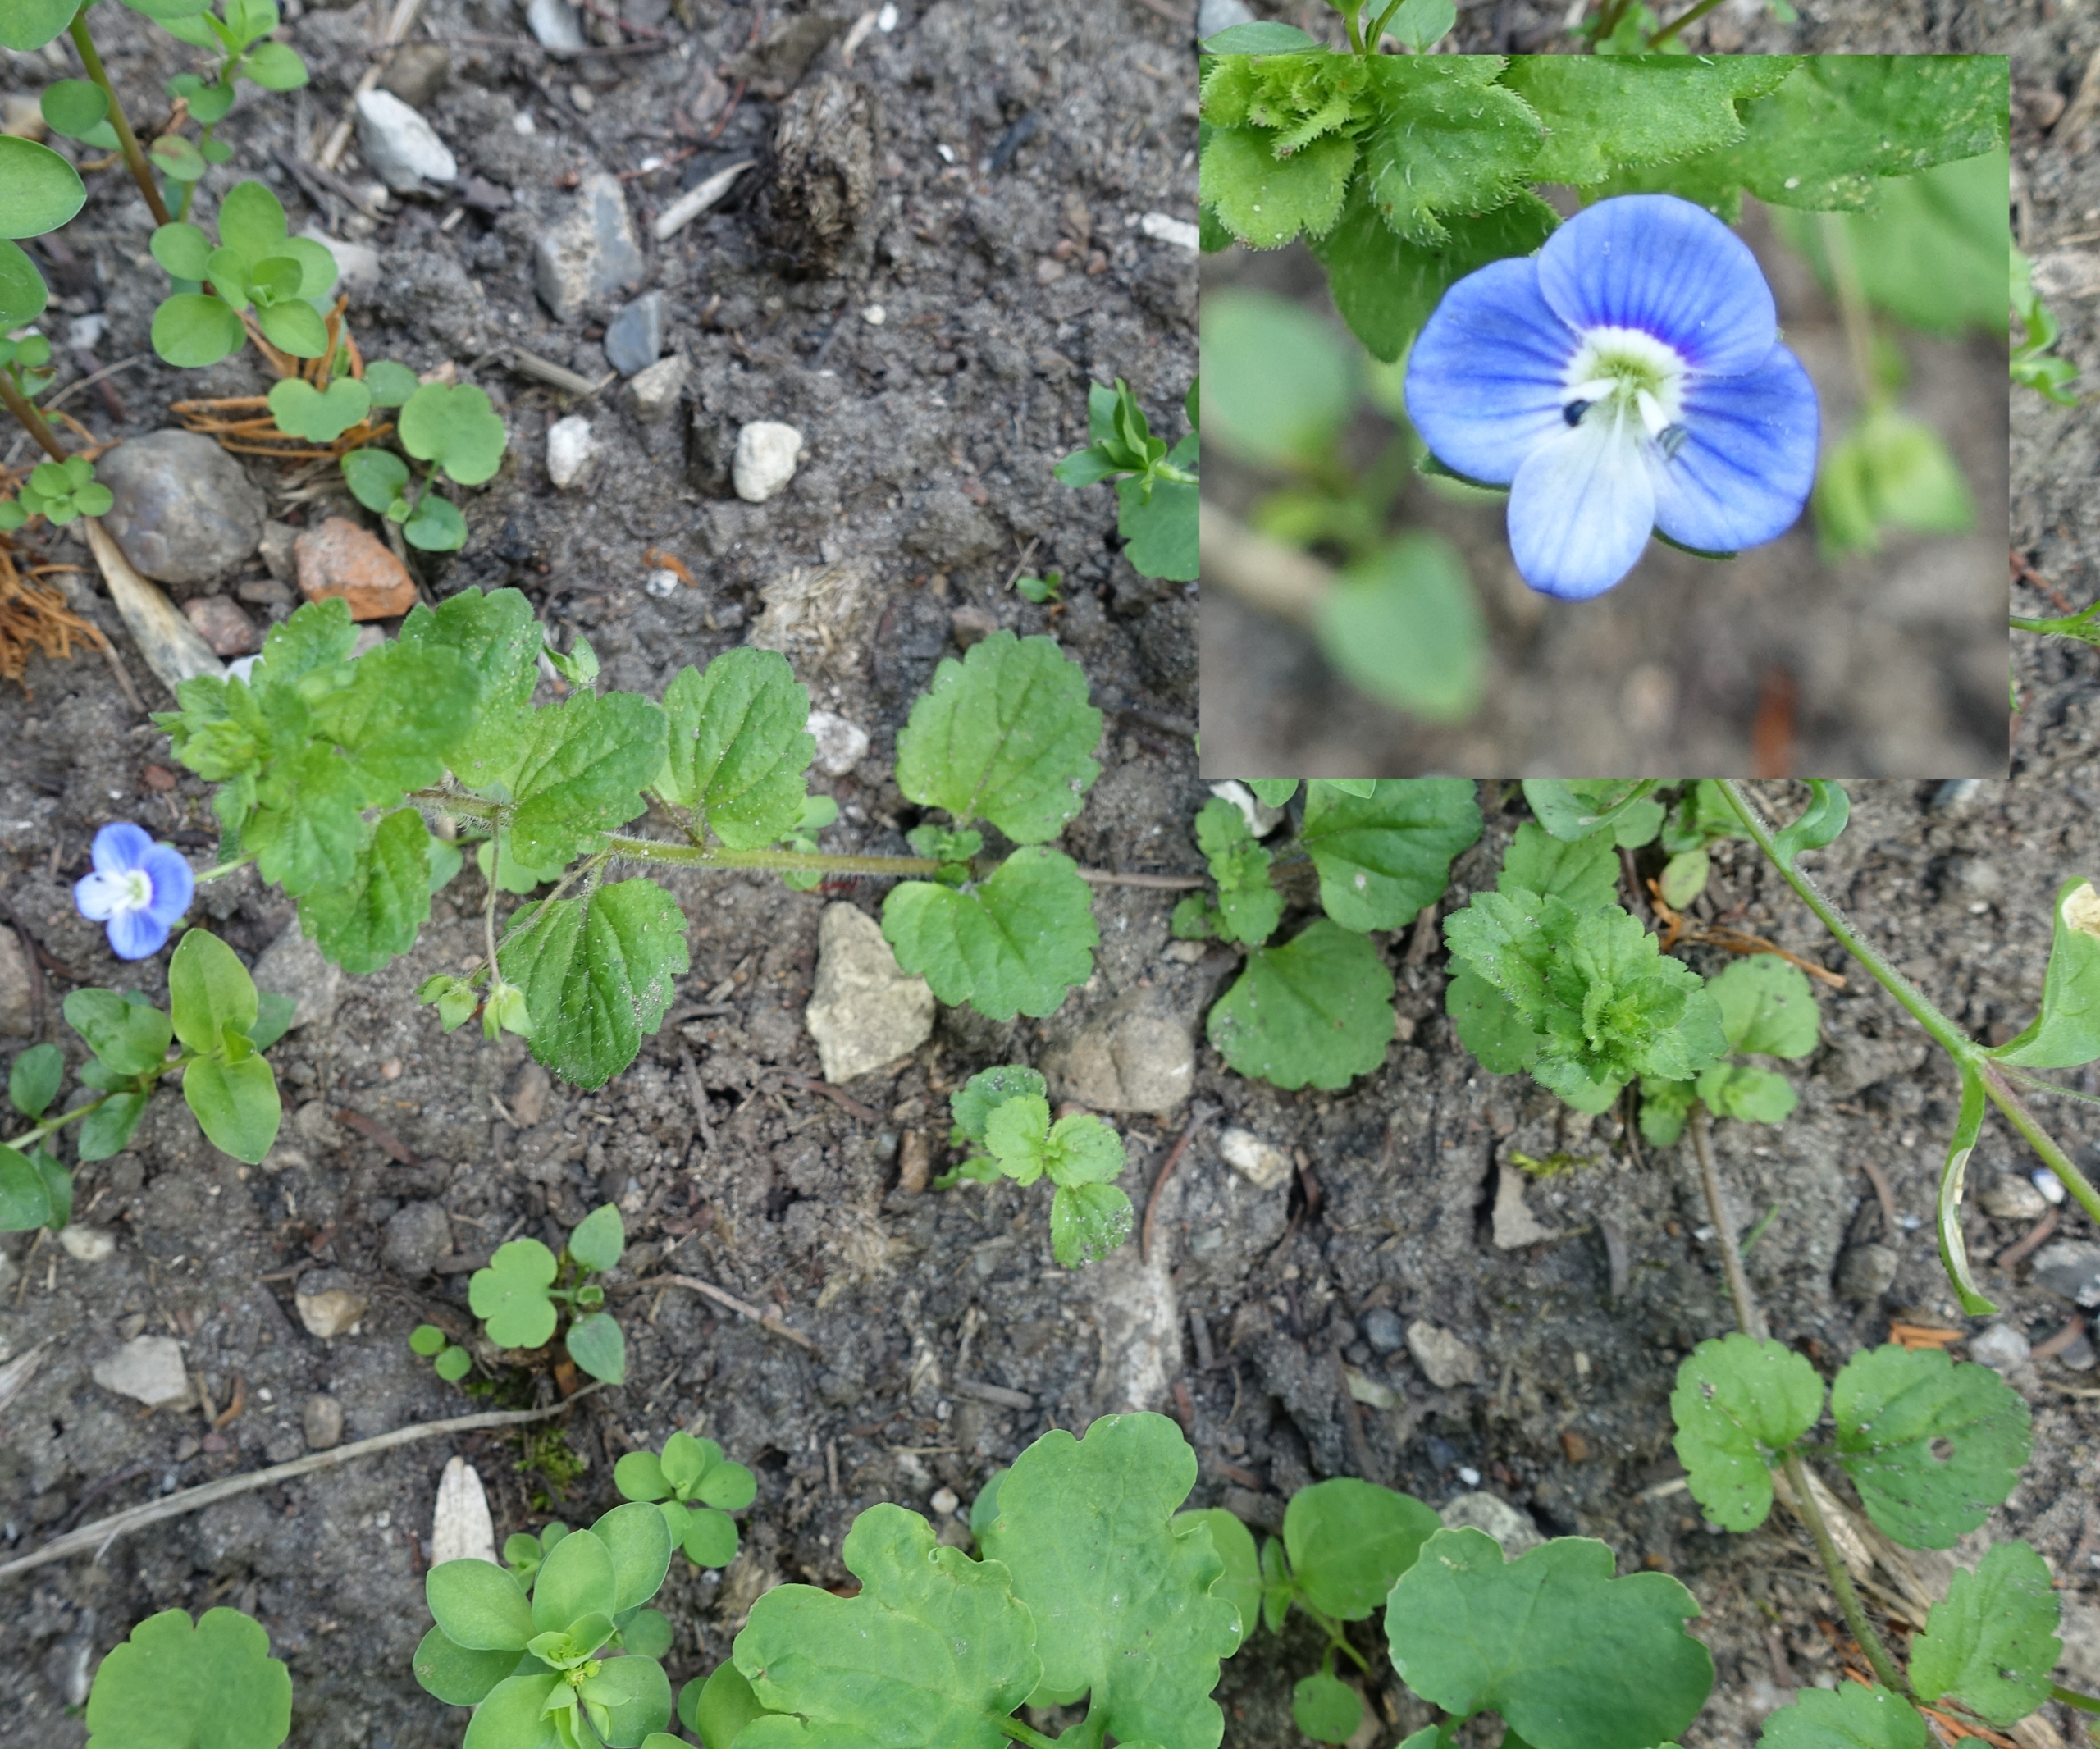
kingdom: Plantae
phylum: Tracheophyta
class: Magnoliopsida
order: Lamiales
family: Plantaginaceae
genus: Veronica
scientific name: Veronica persica
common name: Storkronet ærenpris
